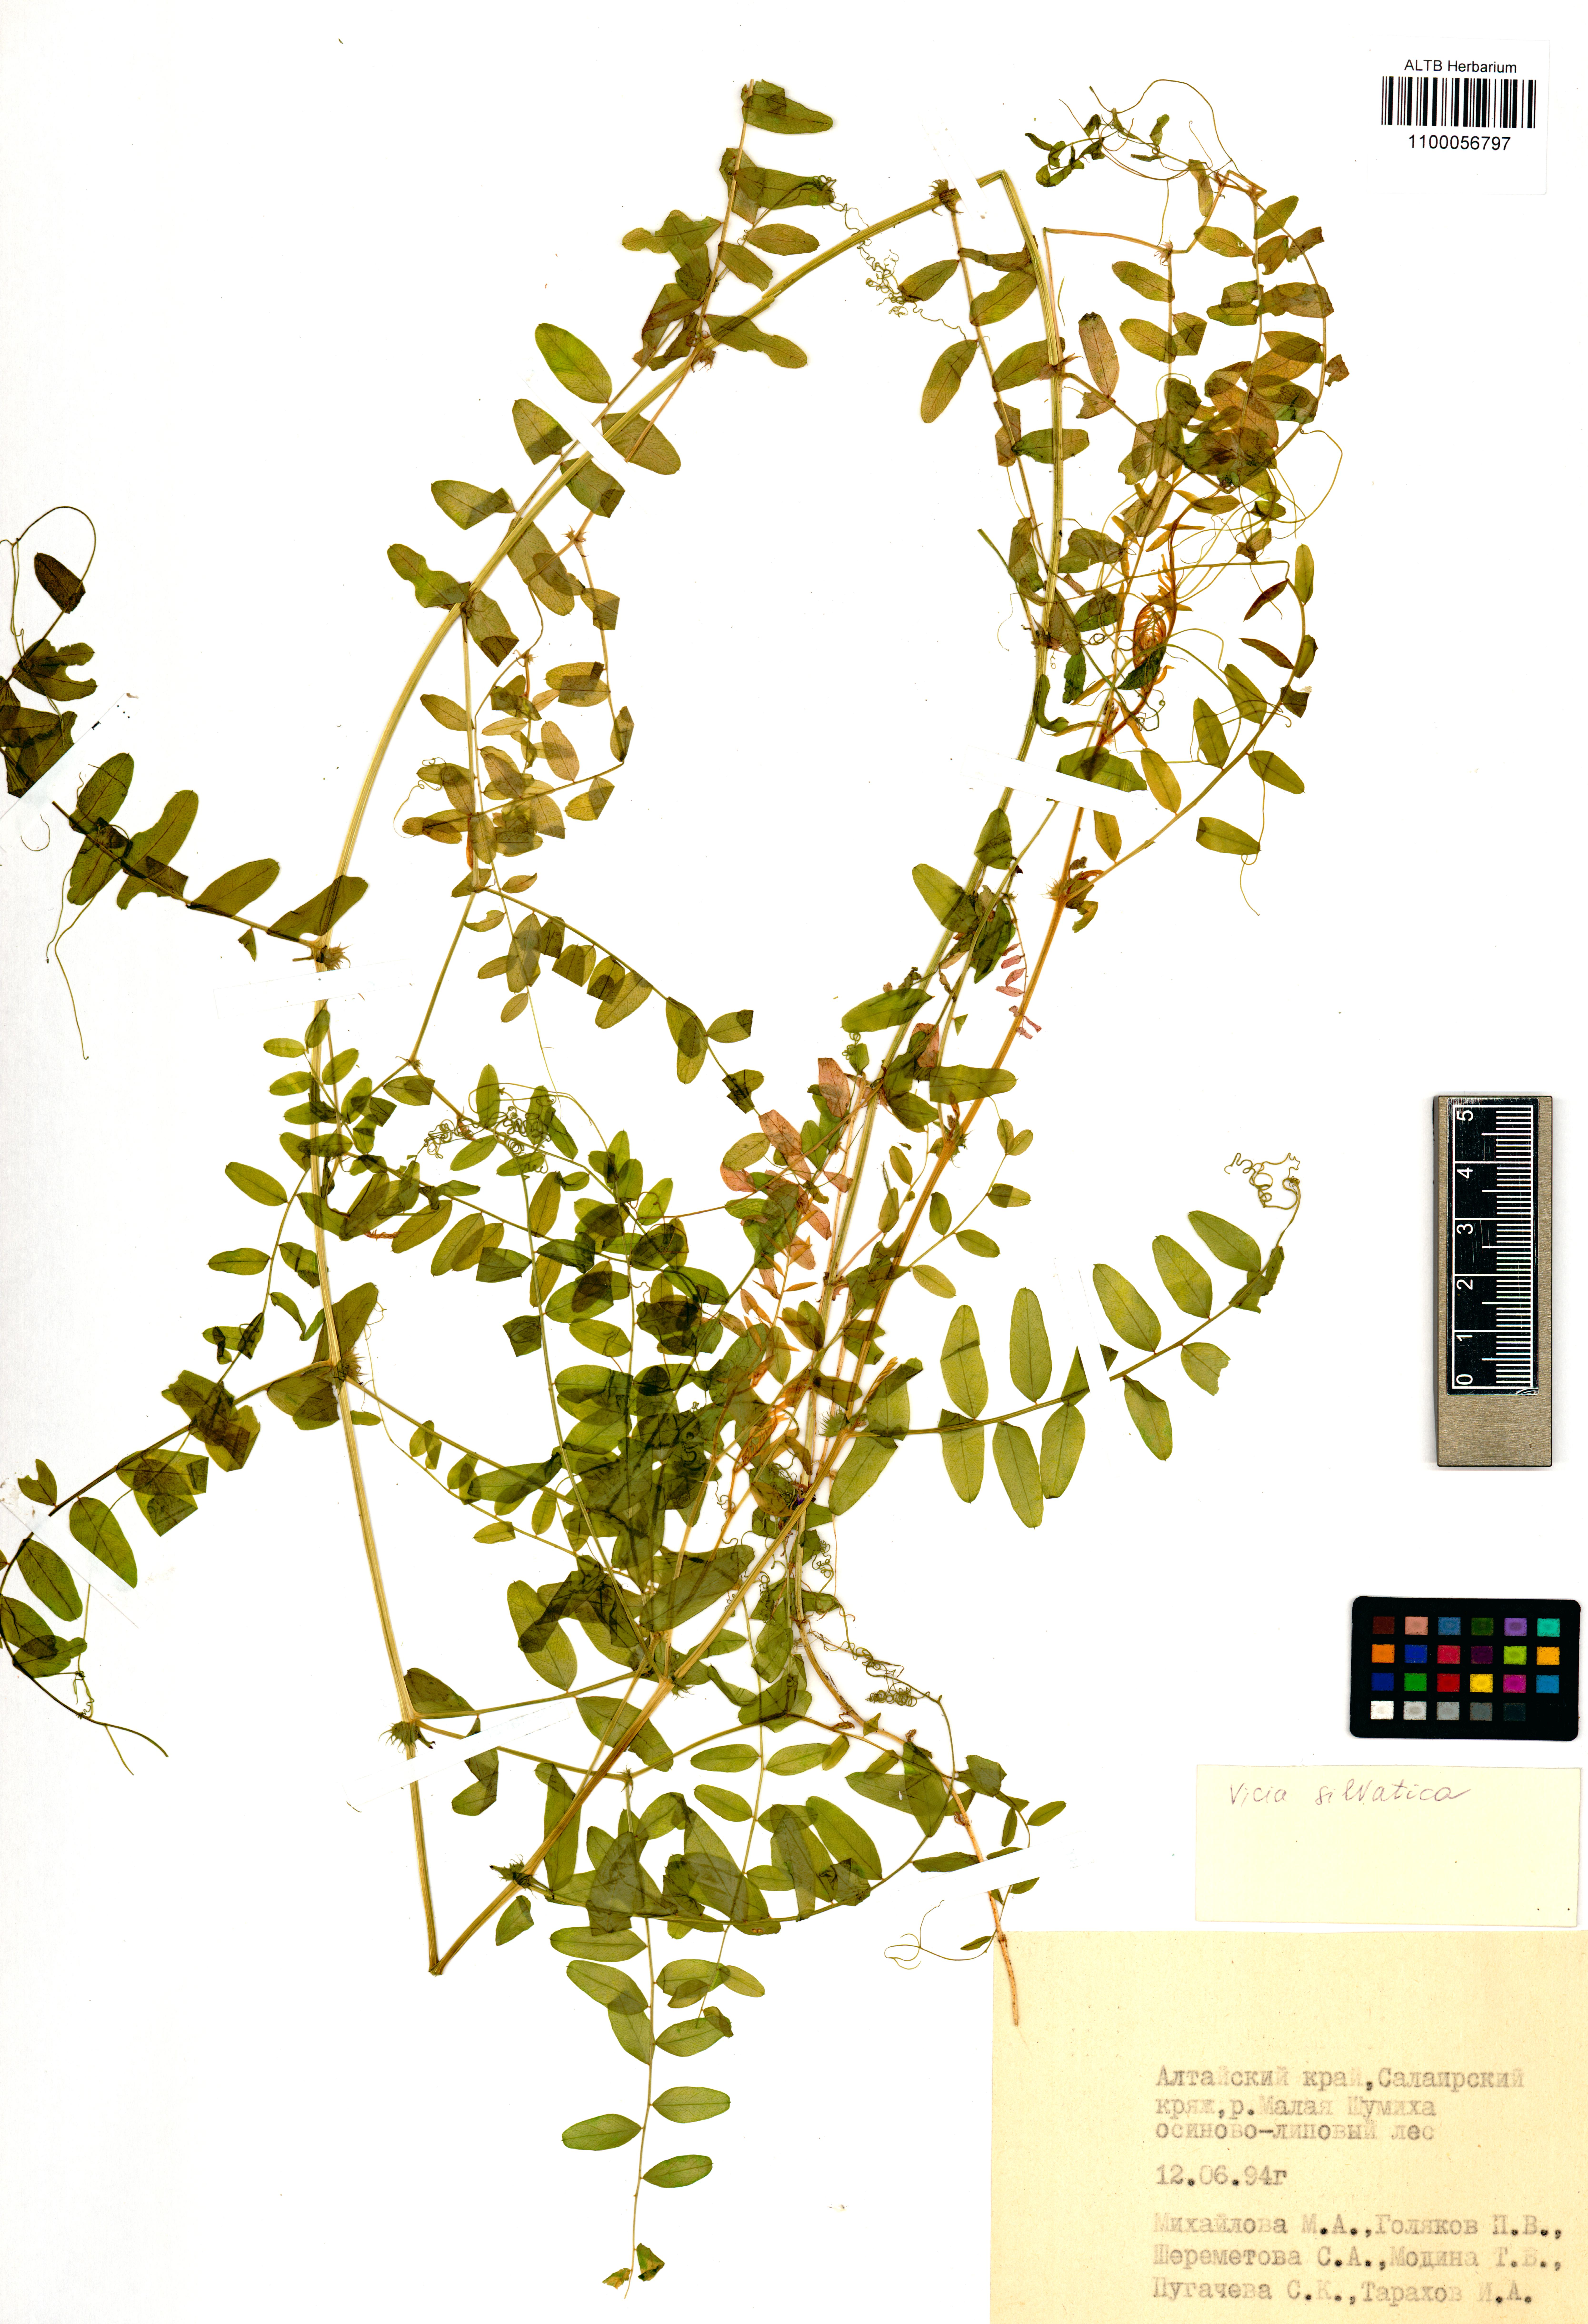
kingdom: Plantae
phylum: Tracheophyta
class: Magnoliopsida
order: Fabales
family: Fabaceae
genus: Vicia
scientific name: Vicia sylvatica
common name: Wood vetch
